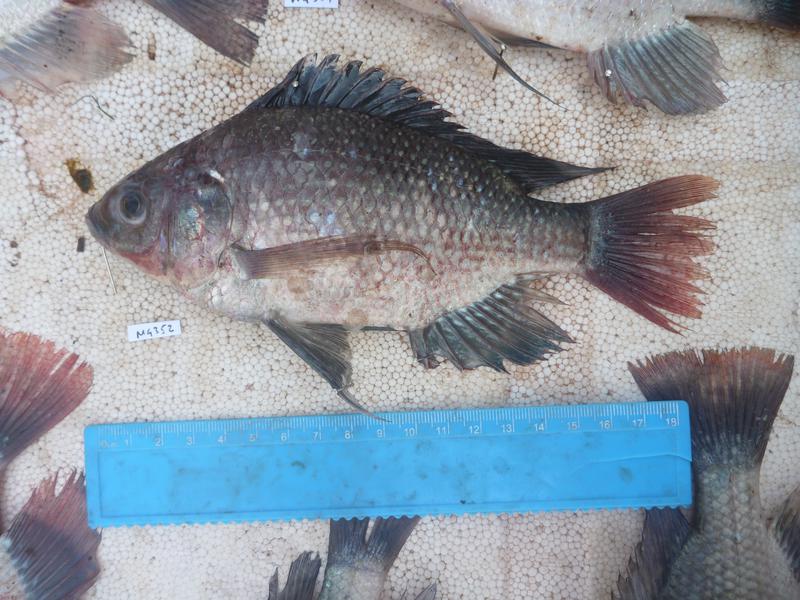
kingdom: Animalia
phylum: Chordata
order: Perciformes
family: Cichlidae
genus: Oreochromis
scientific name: Oreochromis esculentus
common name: Carp
